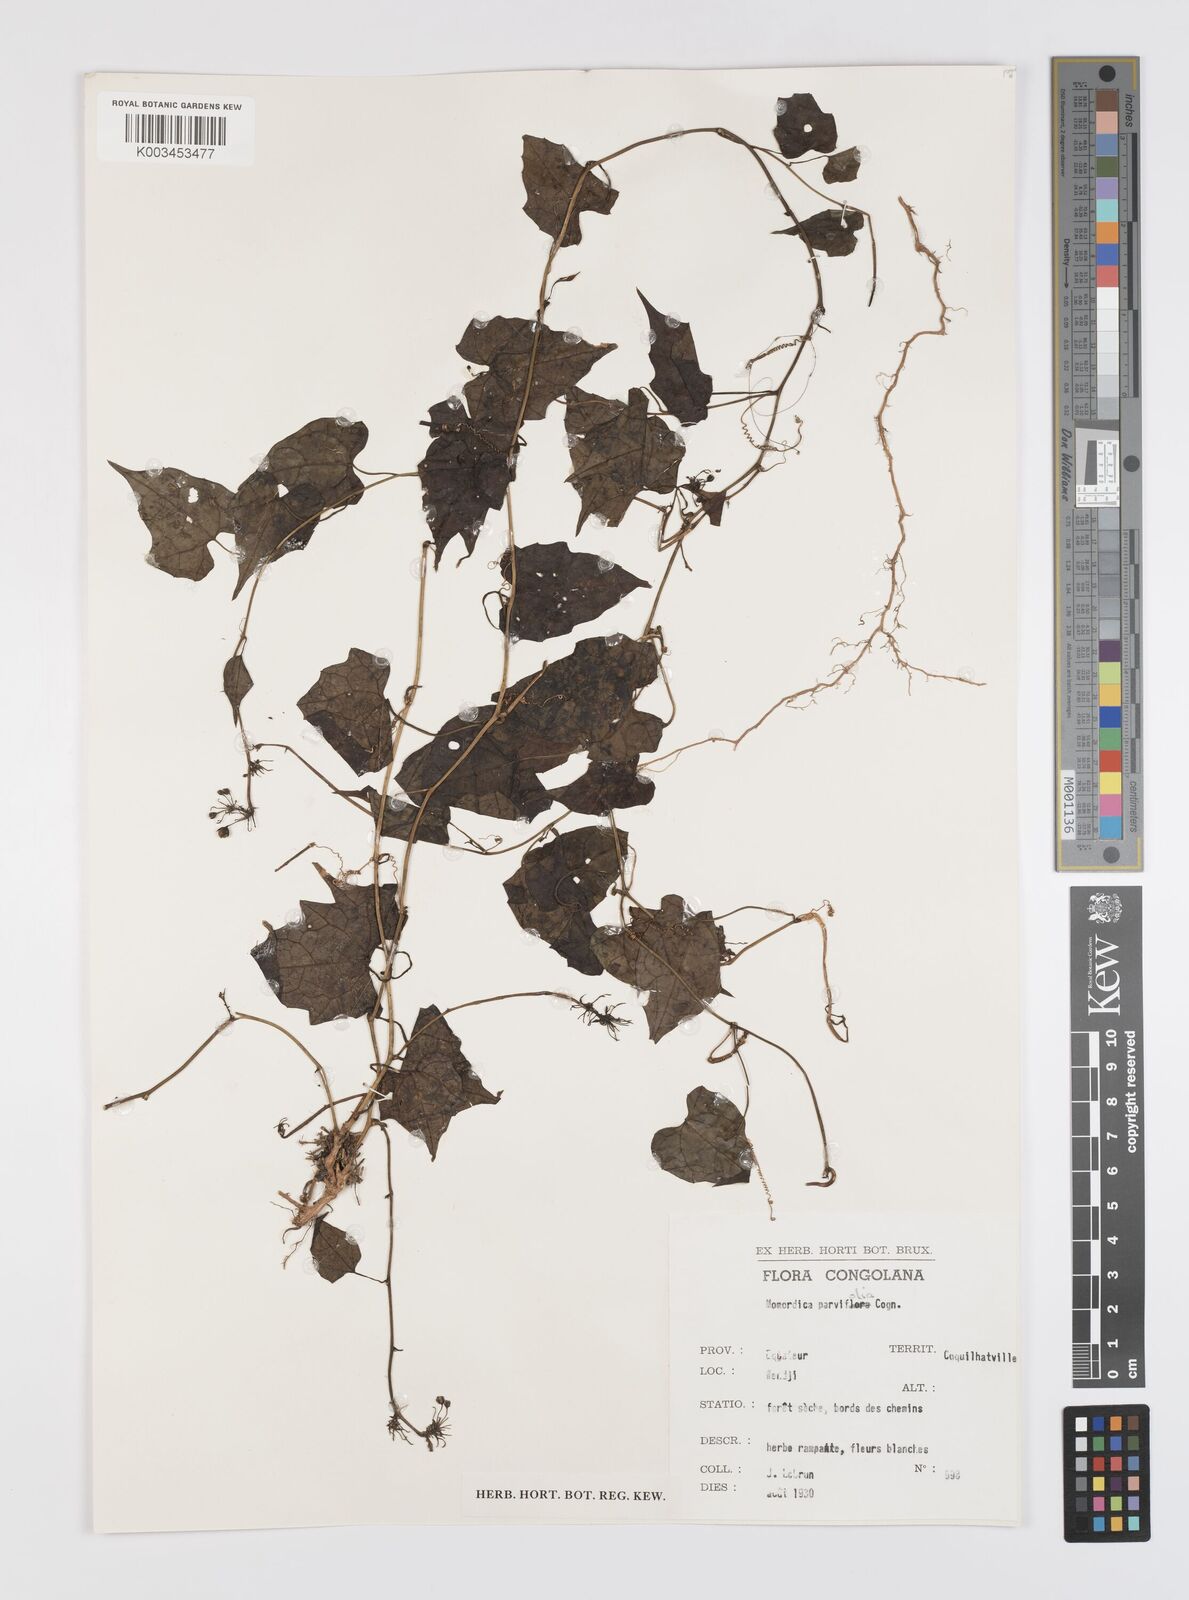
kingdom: Plantae
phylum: Tracheophyta
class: Magnoliopsida
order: Cucurbitales
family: Cucurbitaceae
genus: Momordica
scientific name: Momordica parvifolia
